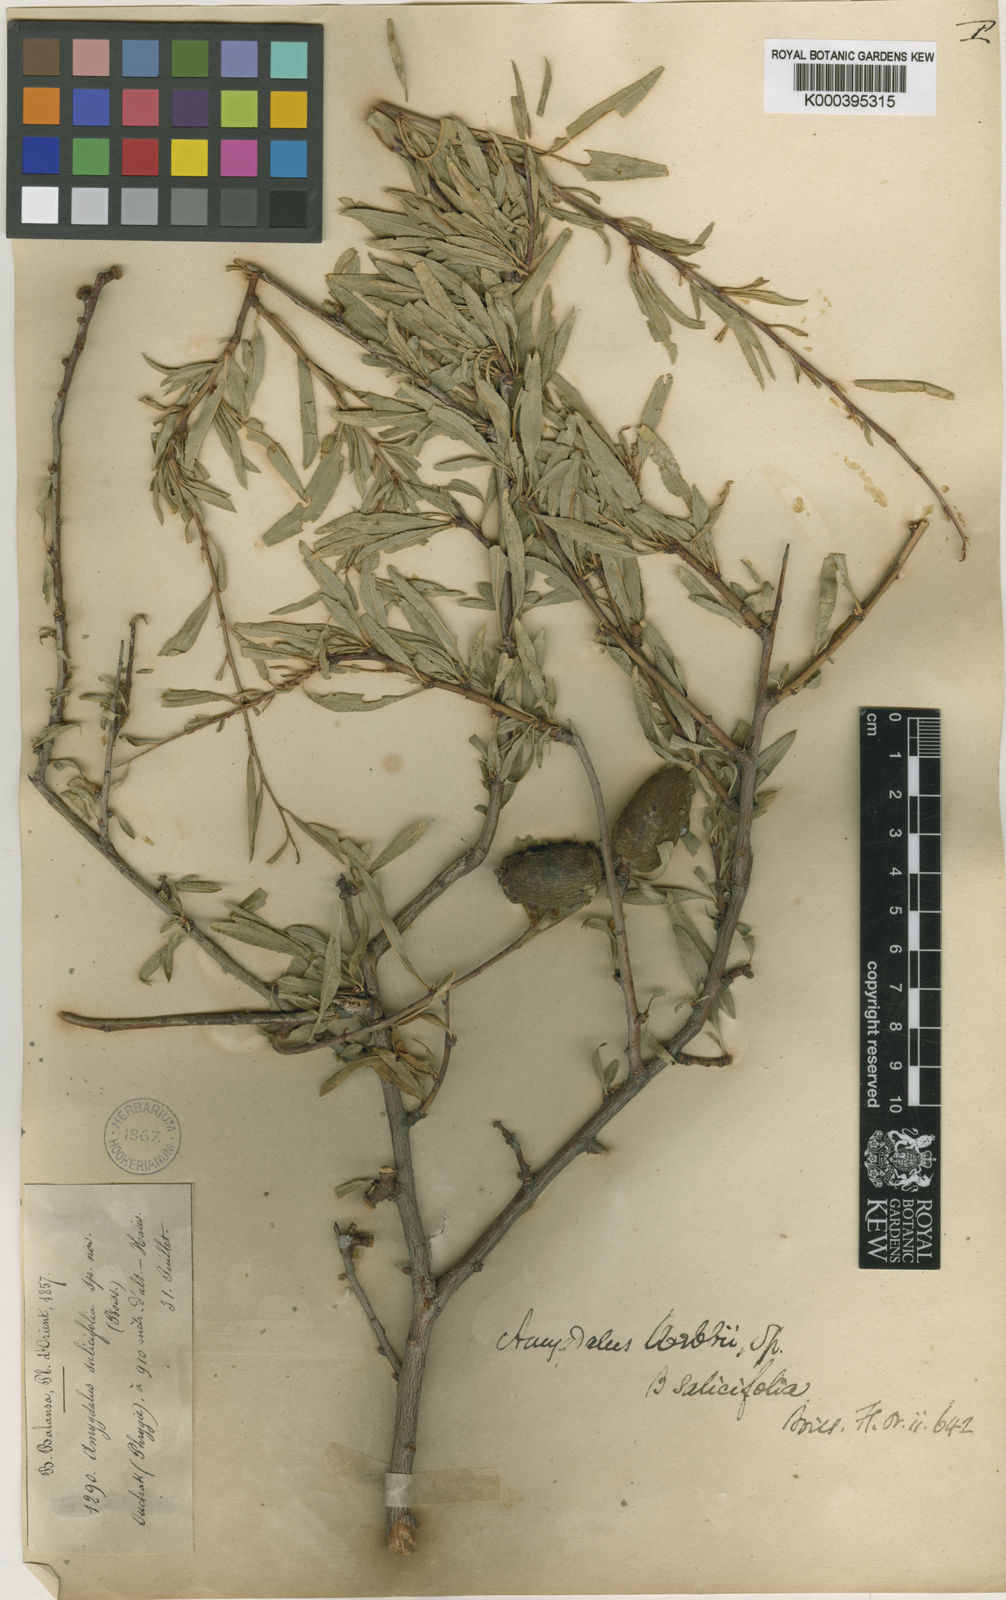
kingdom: Plantae
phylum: Tracheophyta
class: Magnoliopsida
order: Rosales
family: Rosaceae
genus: Prunus
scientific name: Prunus
